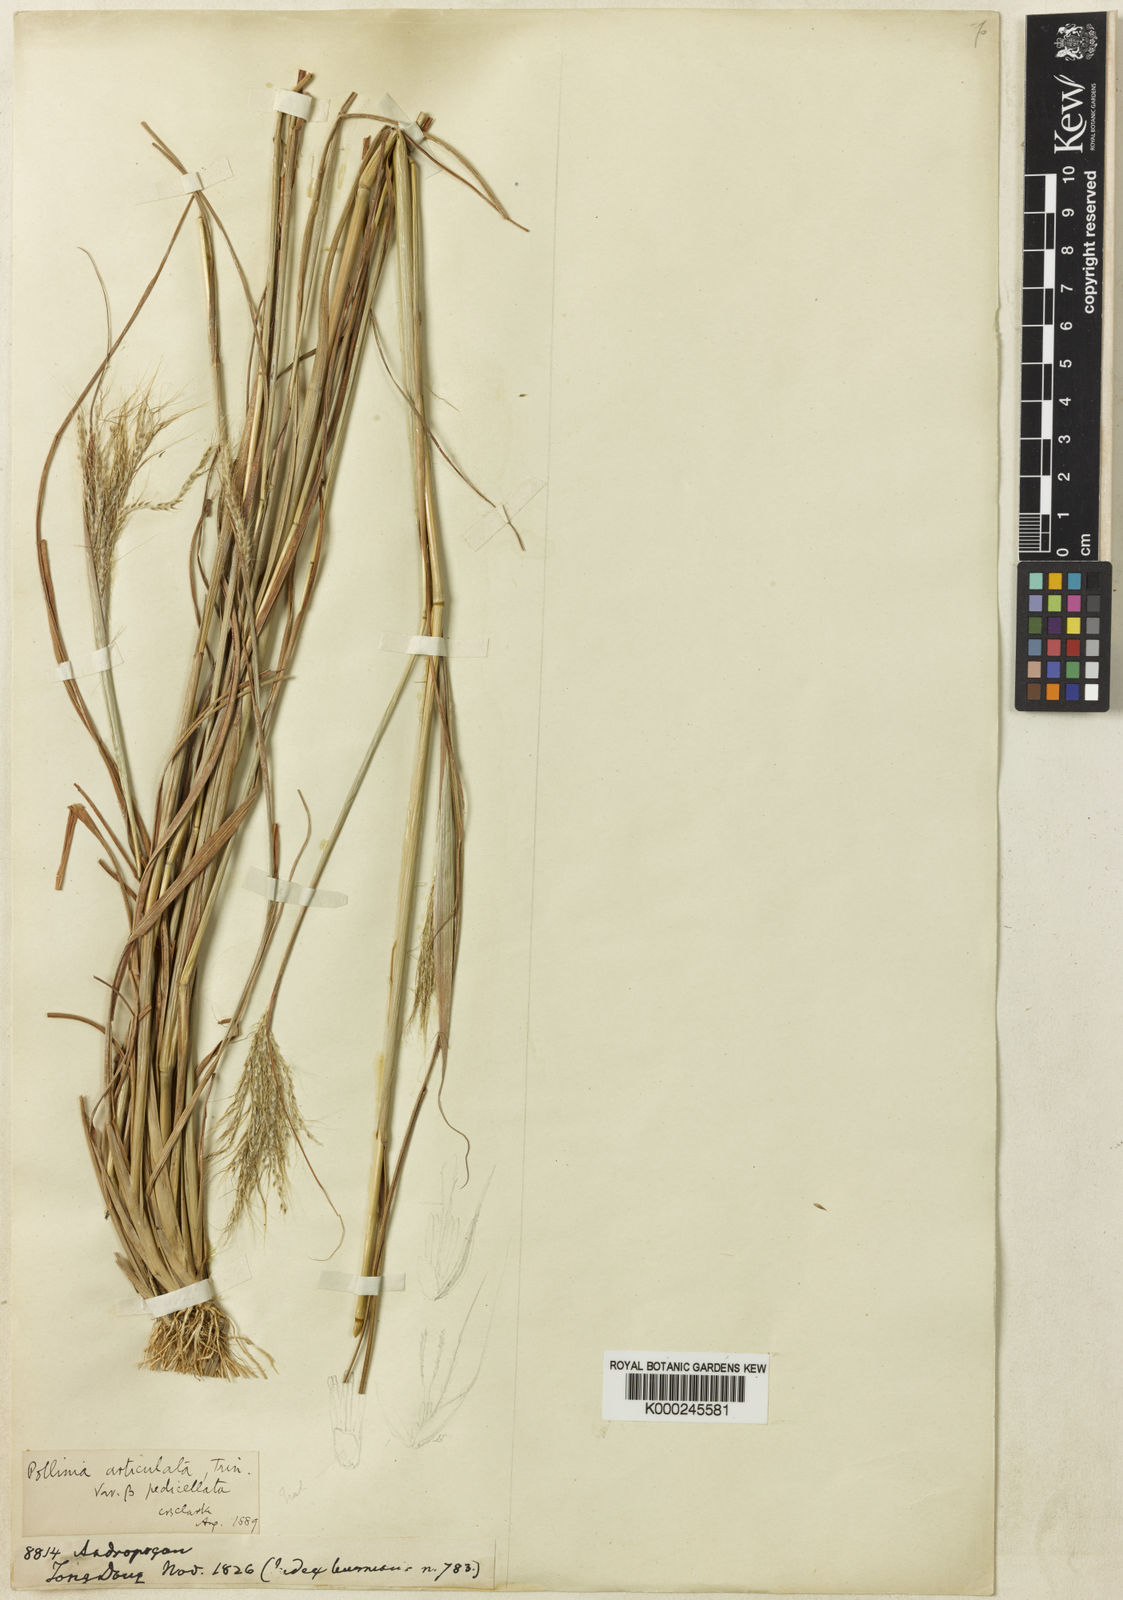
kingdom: Plantae
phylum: Tracheophyta
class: Liliopsida
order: Poales
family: Poaceae
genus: Pseudopogonatherum
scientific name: Pseudopogonatherum contortum
